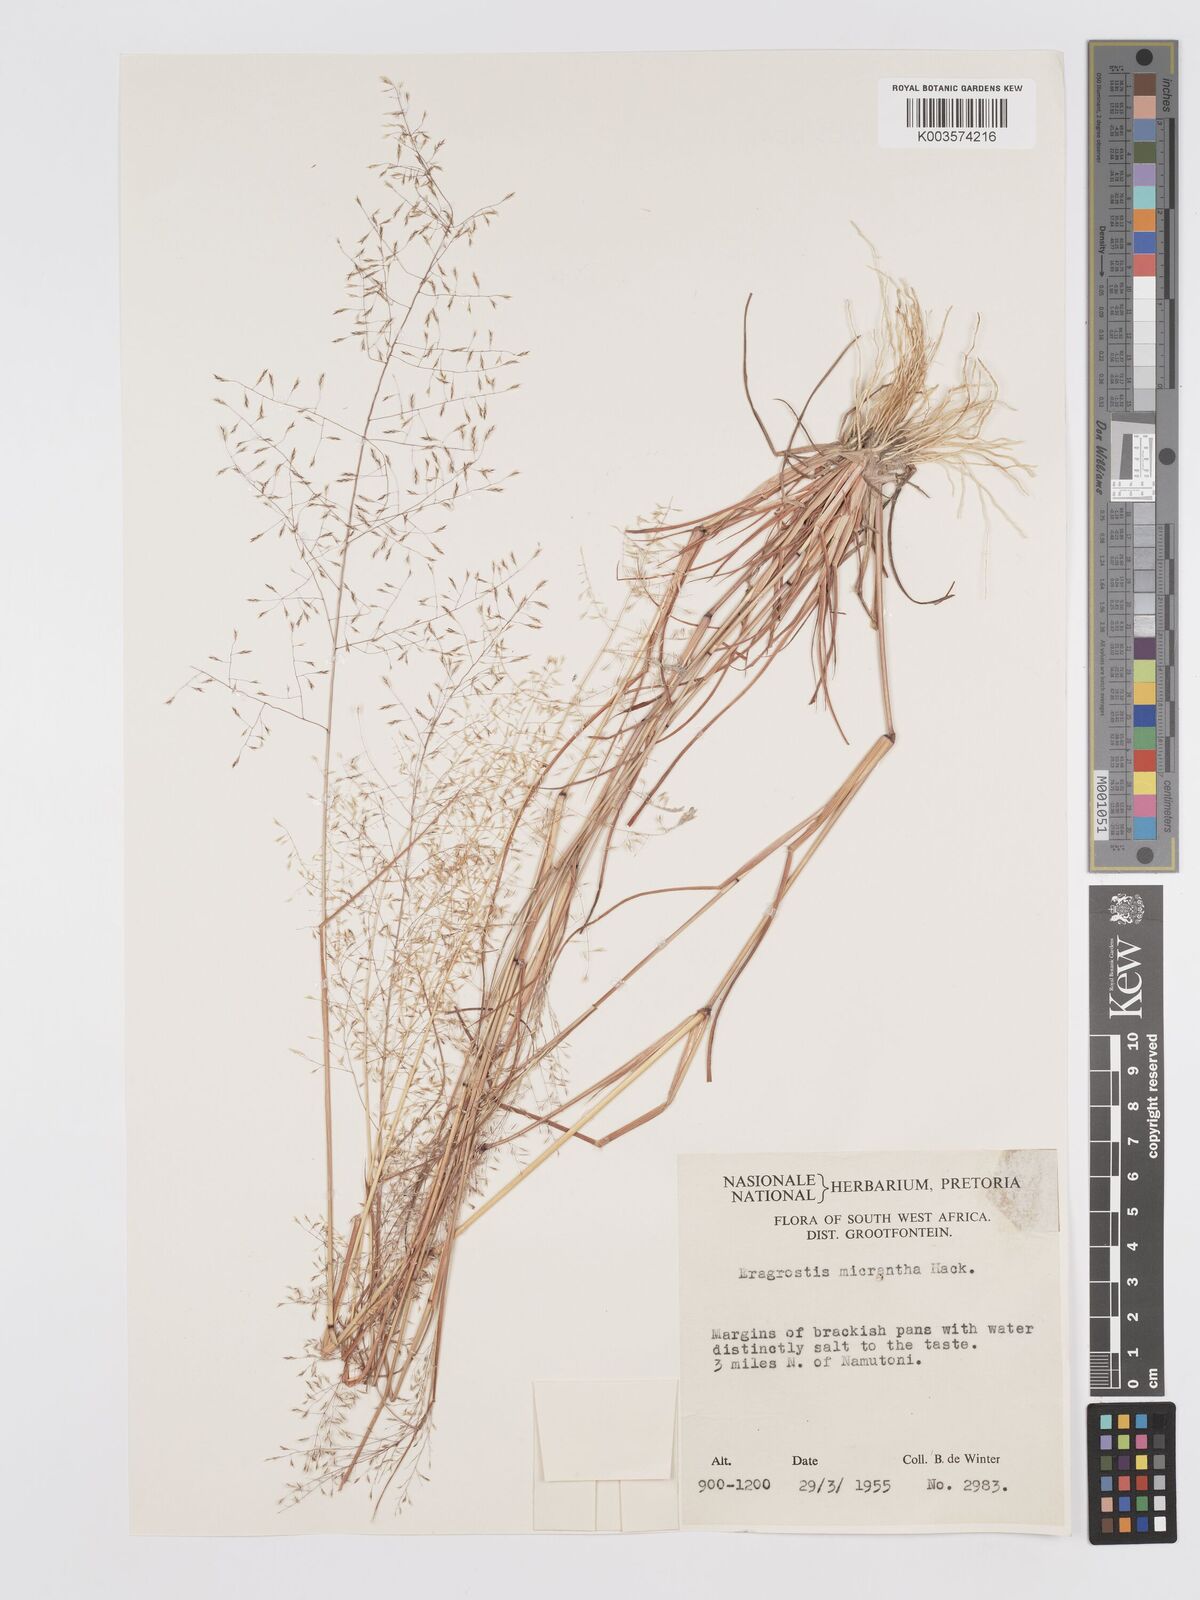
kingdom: Plantae
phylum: Tracheophyta
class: Liliopsida
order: Poales
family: Poaceae
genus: Eragrostis
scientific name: Eragrostis micrantha
